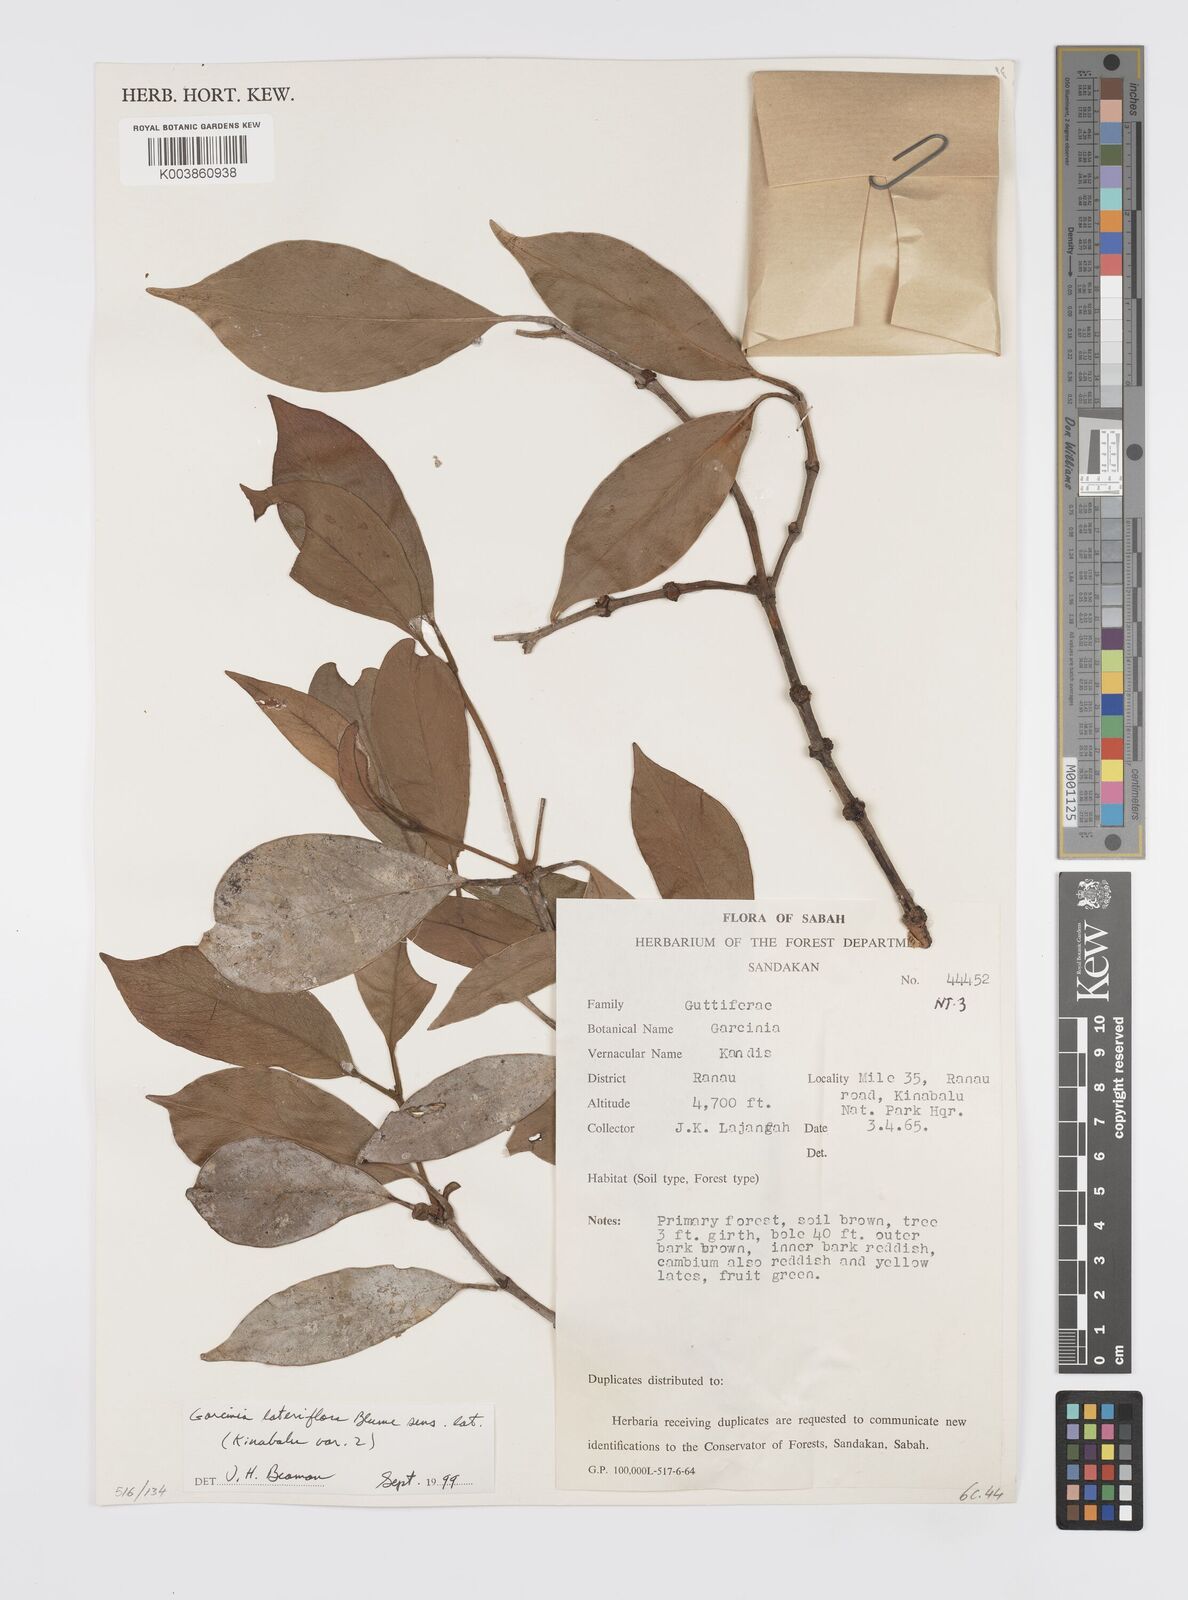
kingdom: Plantae
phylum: Tracheophyta
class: Magnoliopsida
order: Malpighiales
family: Clusiaceae
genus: Garcinia
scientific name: Garcinia lateriflora
